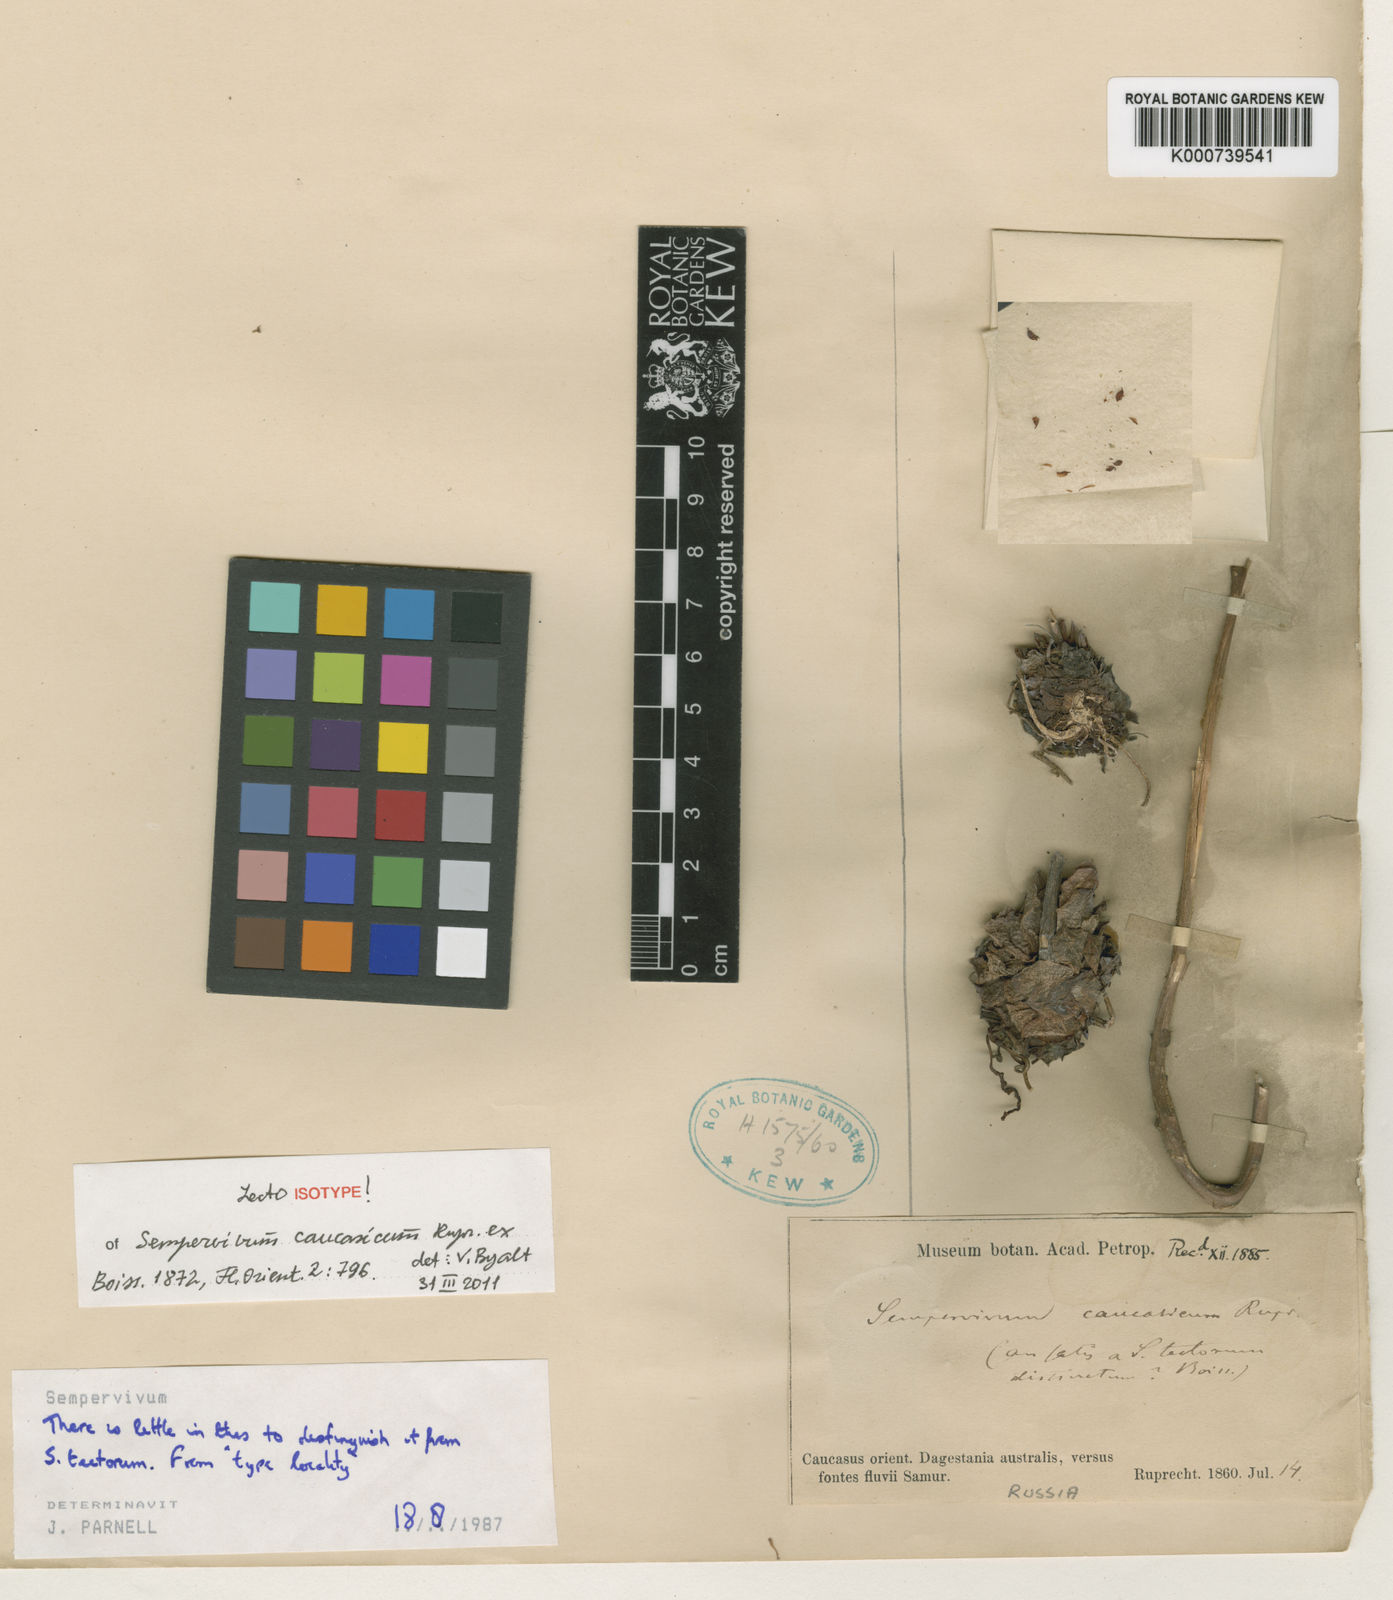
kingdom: Plantae
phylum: Tracheophyta
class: Magnoliopsida
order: Saxifragales
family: Crassulaceae
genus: Sempervivum
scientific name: Sempervivum caucasicum
